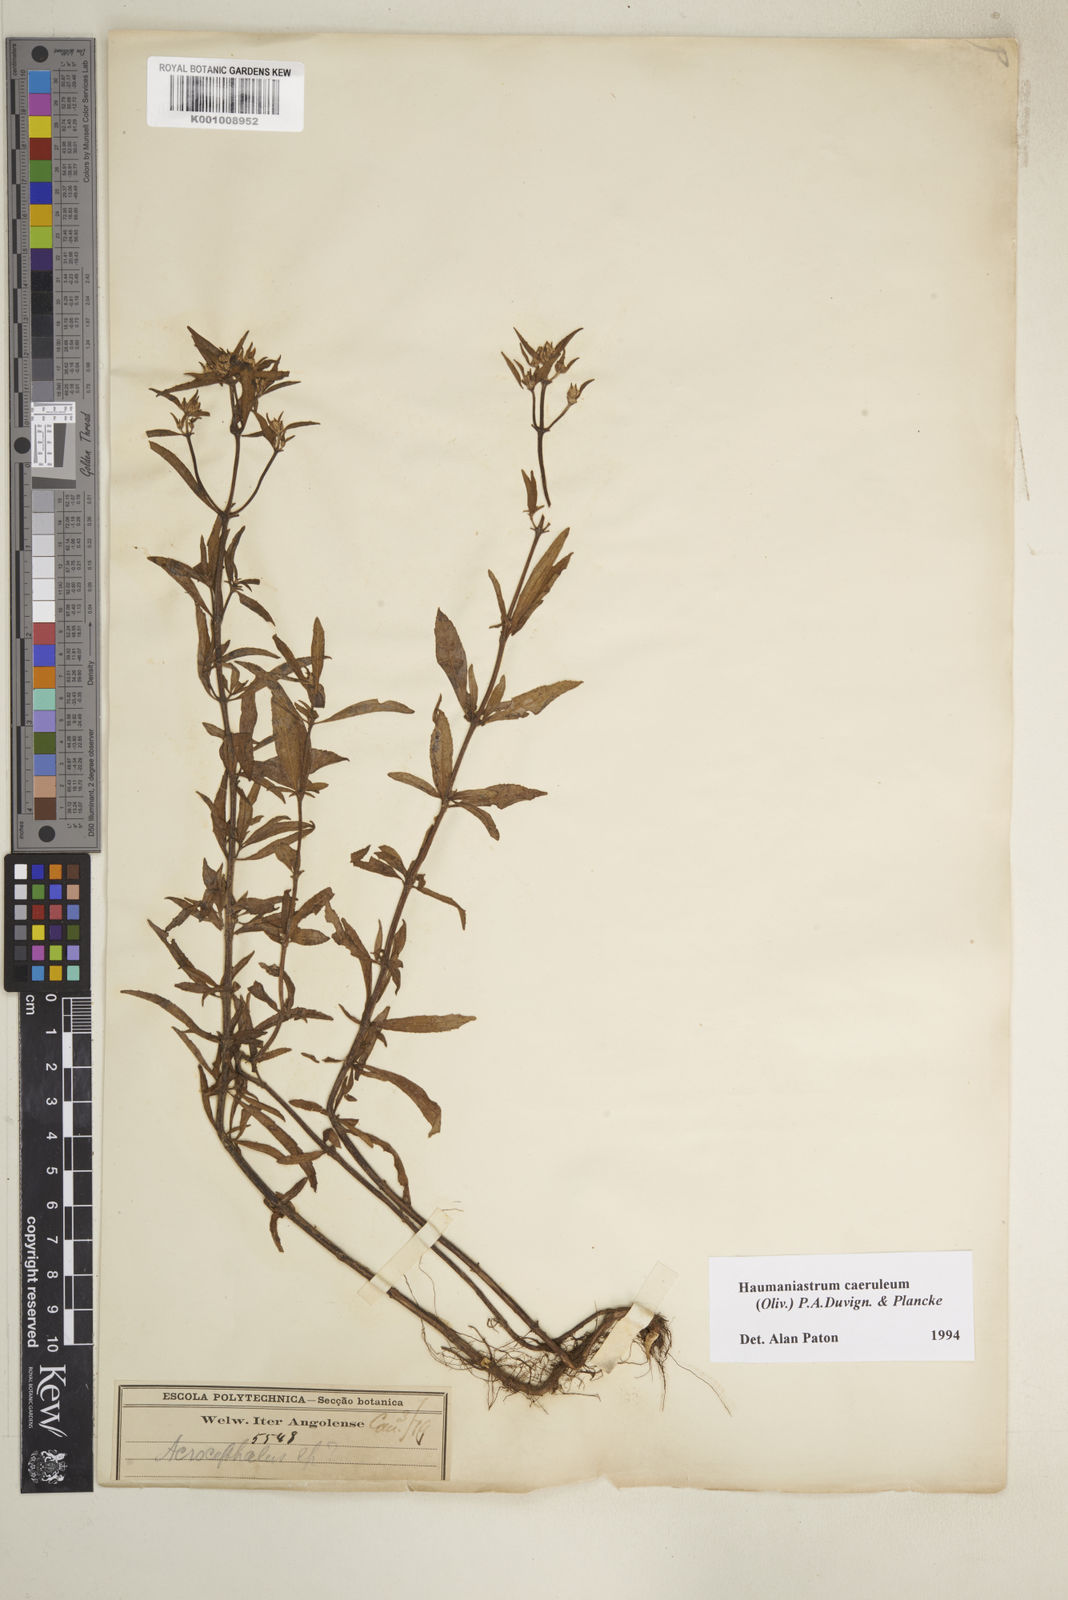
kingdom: Plantae
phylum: Tracheophyta
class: Magnoliopsida
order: Lamiales
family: Lamiaceae
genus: Haumaniastrum
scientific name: Haumaniastrum caeruleum
